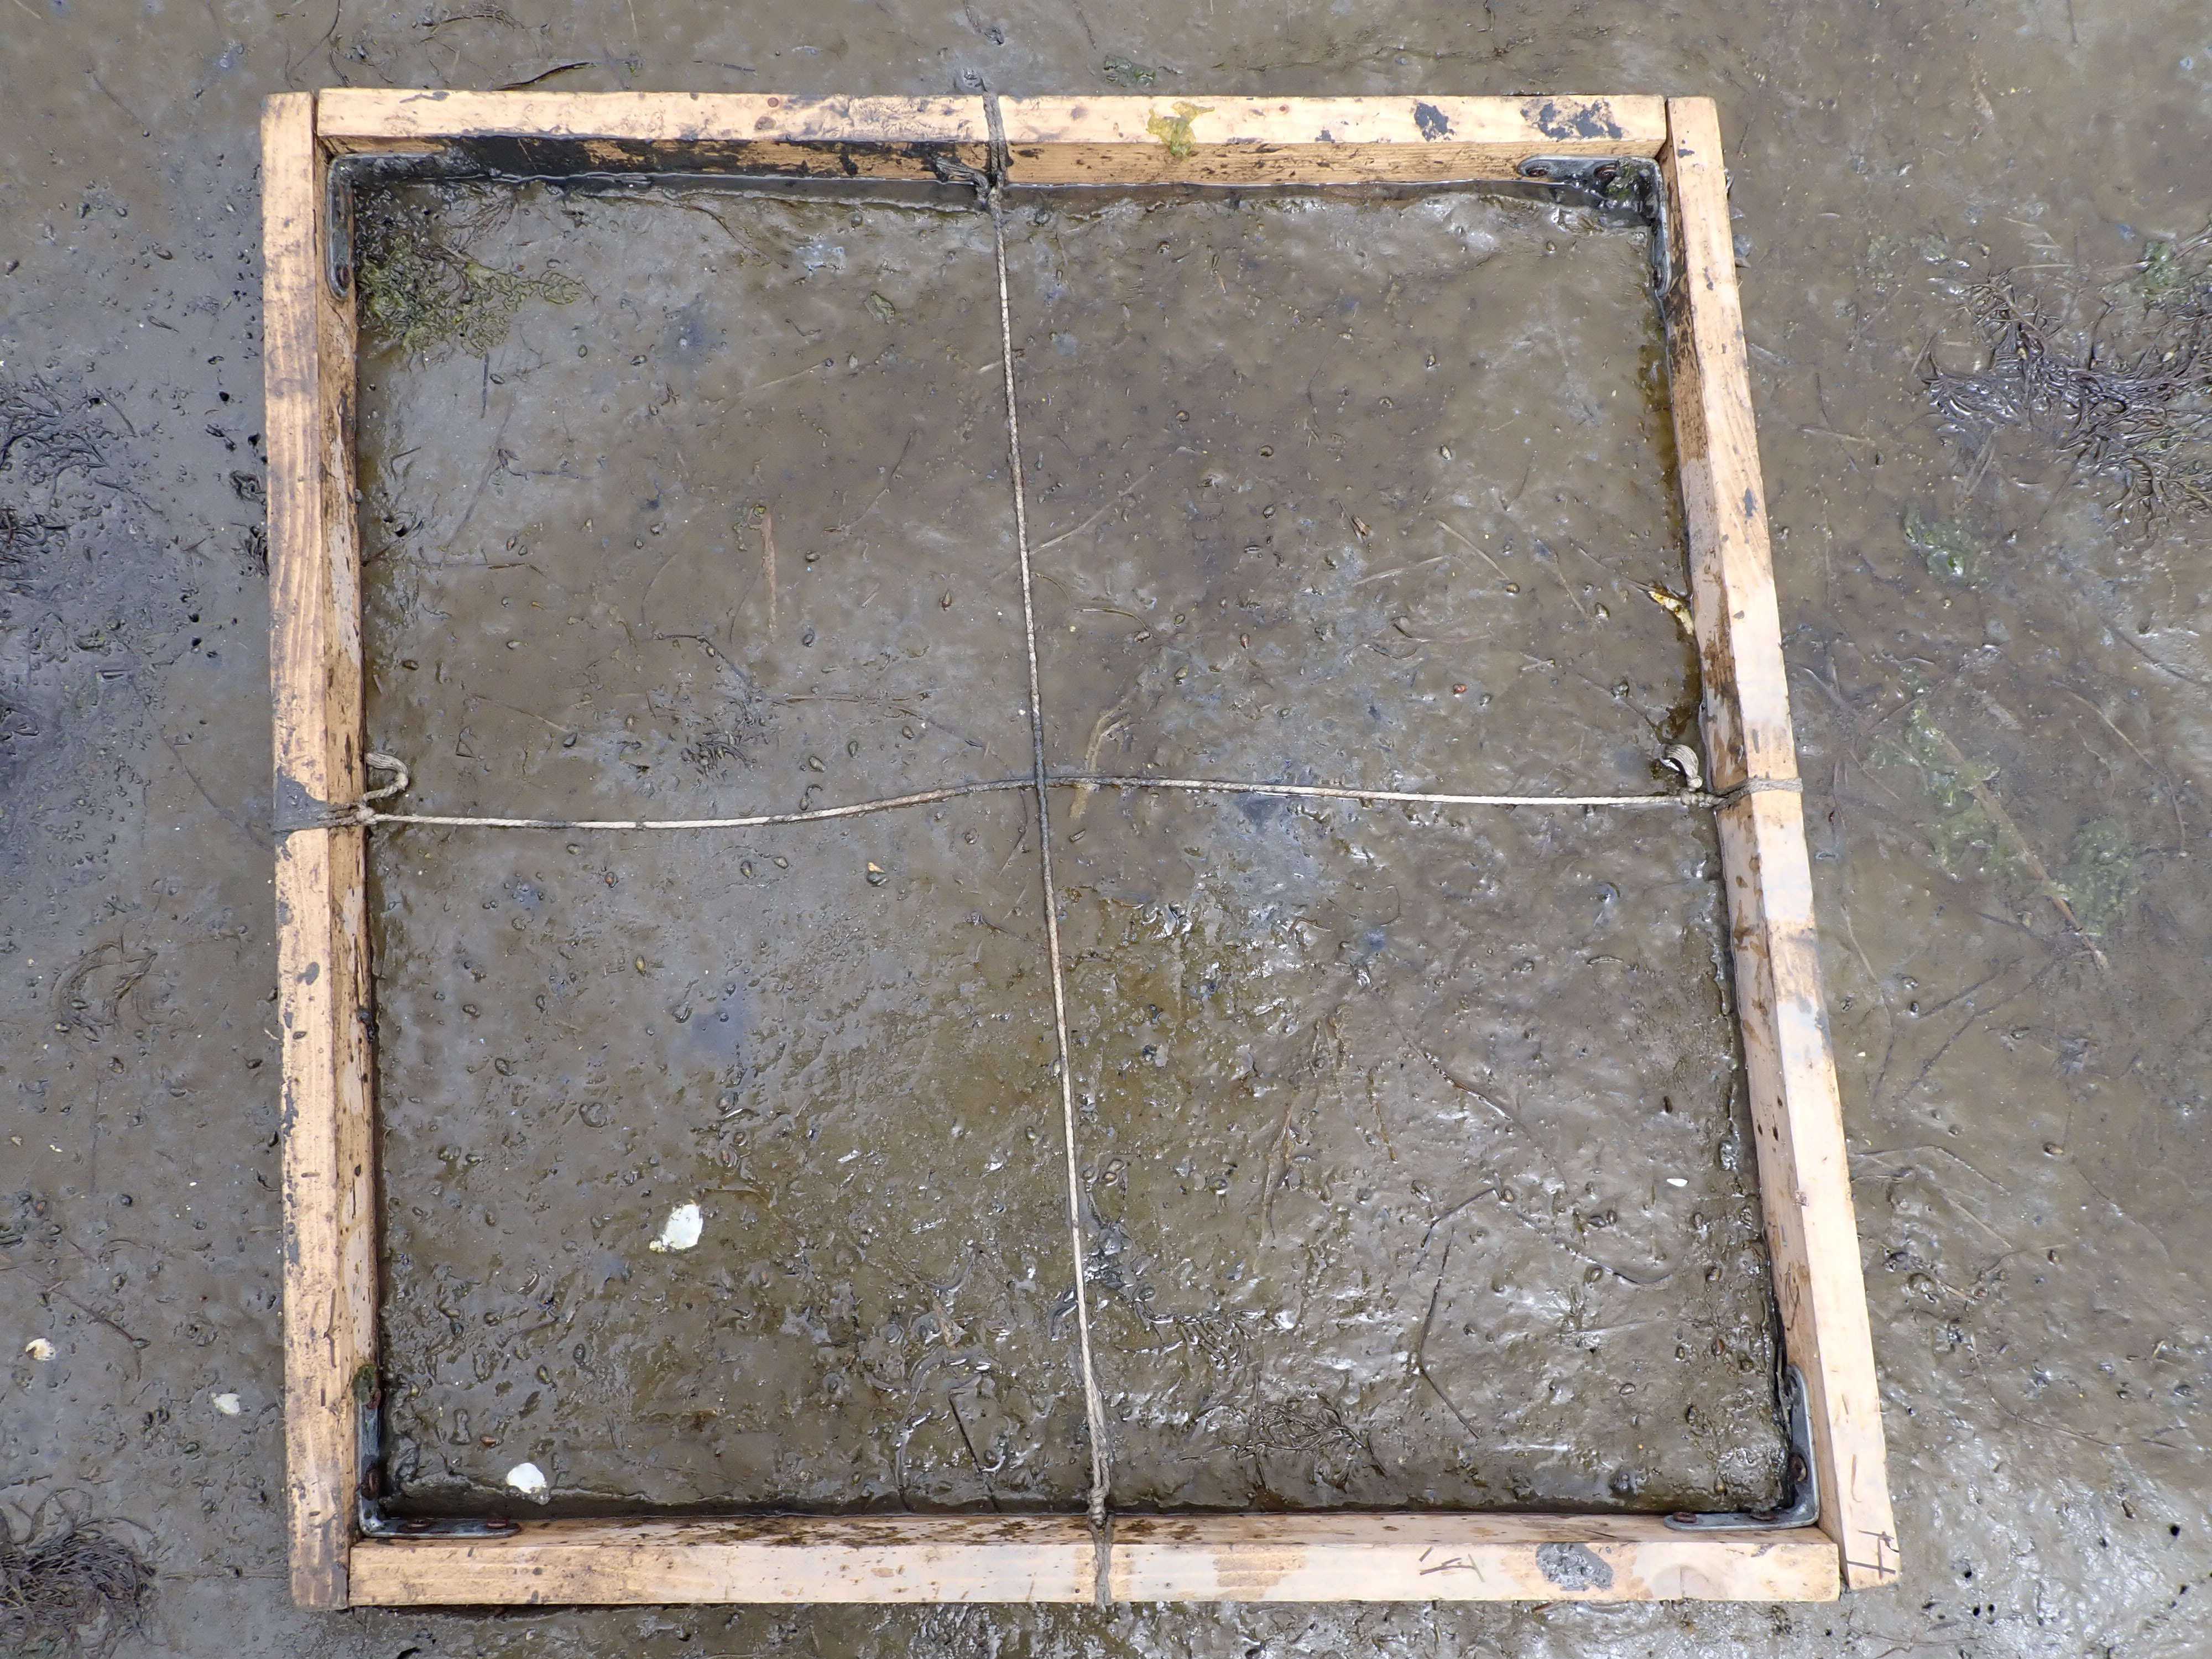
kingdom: Plantae
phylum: Chlorophyta
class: Ulvophyceae
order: Ulvales
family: Ulvaceae
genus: Ulva
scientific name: Ulva
